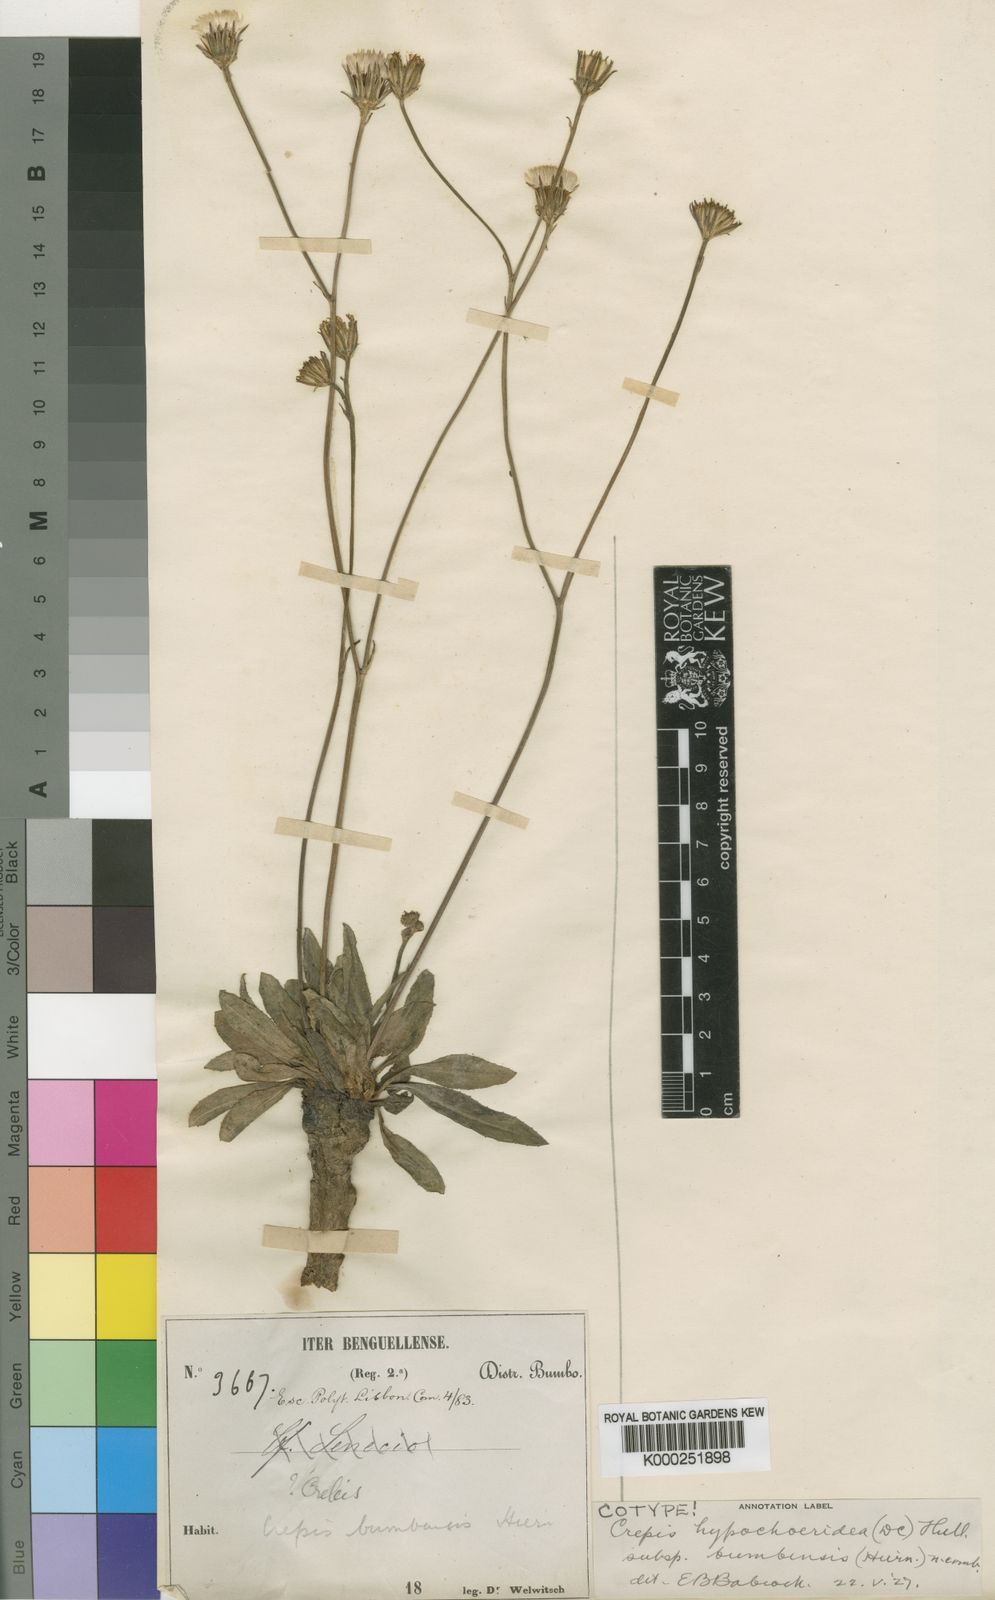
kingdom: Plantae
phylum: Tracheophyta
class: Magnoliopsida
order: Asterales
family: Asteraceae
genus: Crepis
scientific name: Crepis hypochoeridea
